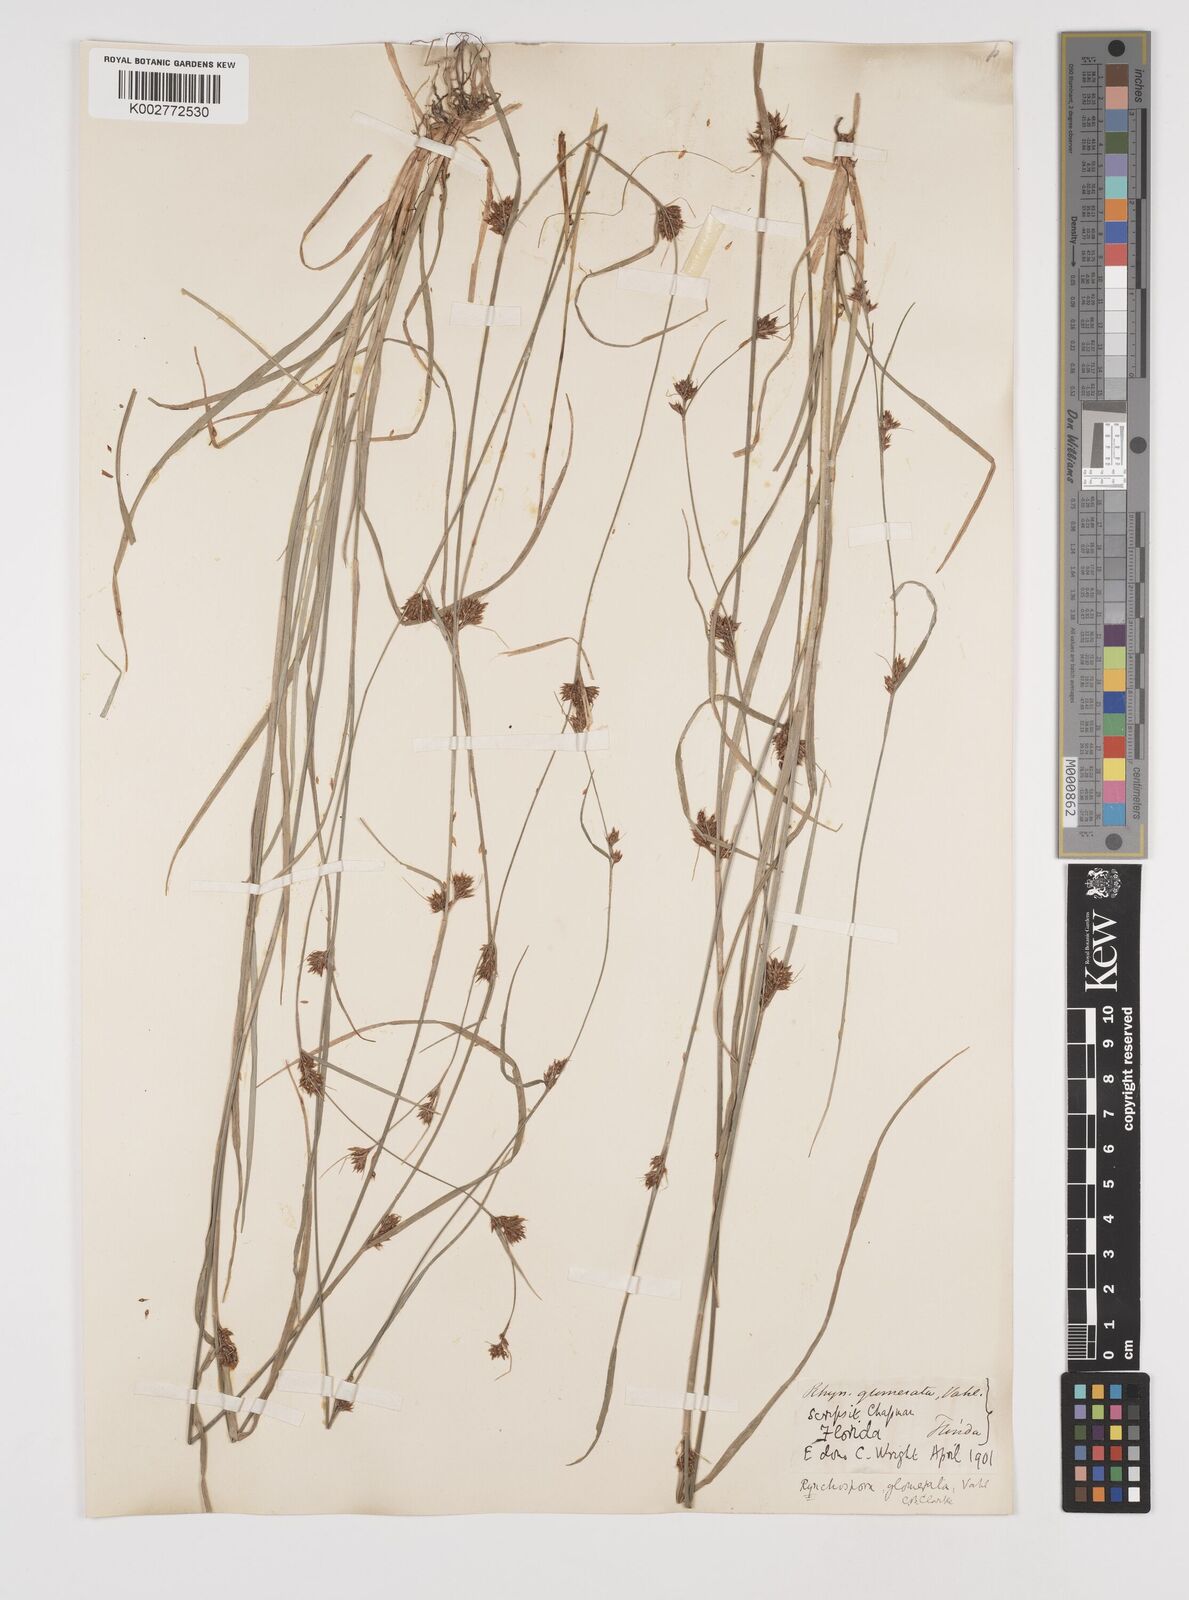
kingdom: Plantae
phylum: Tracheophyta
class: Liliopsida
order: Poales
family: Cyperaceae
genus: Rhynchospora
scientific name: Rhynchospora glomerata
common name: Cluster beak sedge
